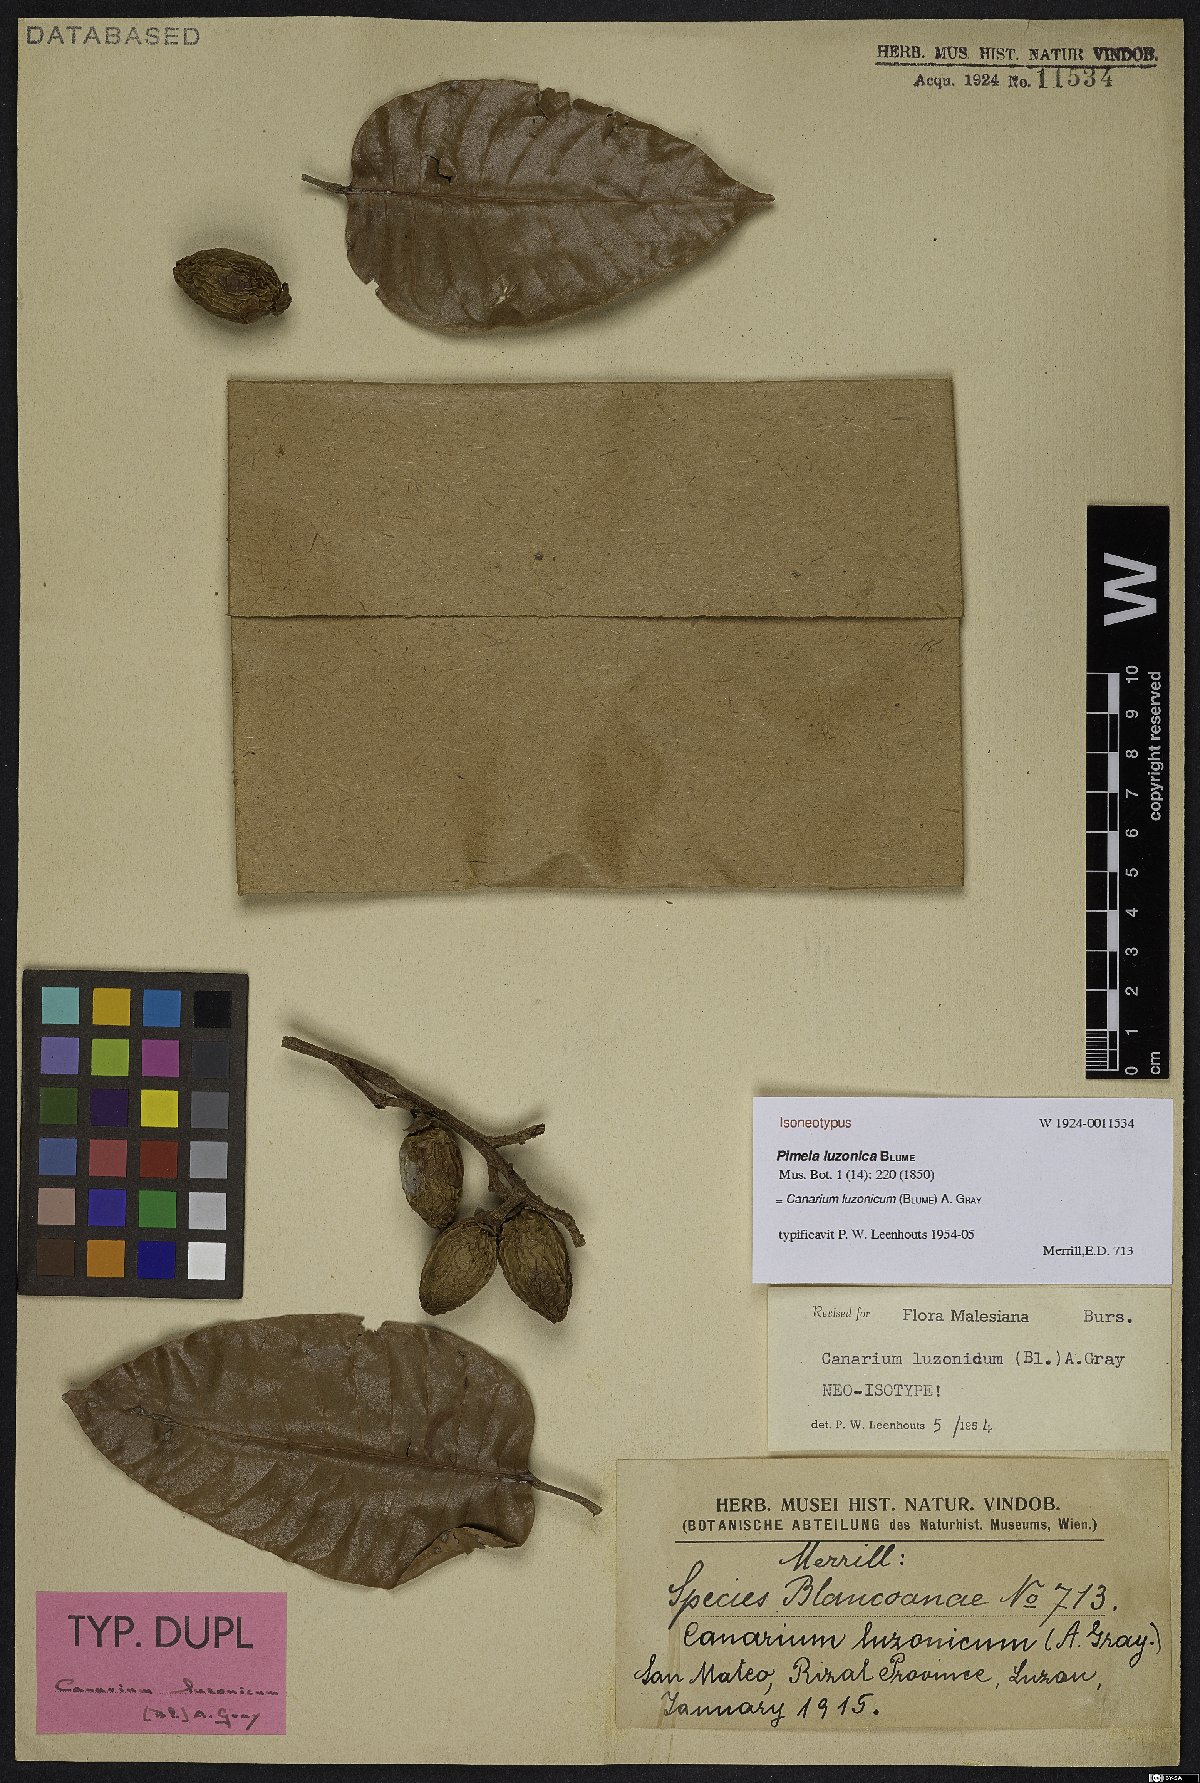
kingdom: Plantae
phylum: Tracheophyta
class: Magnoliopsida
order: Sapindales
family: Burseraceae
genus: Canarium
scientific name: Canarium luzonicum
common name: Manila elemi-tree
